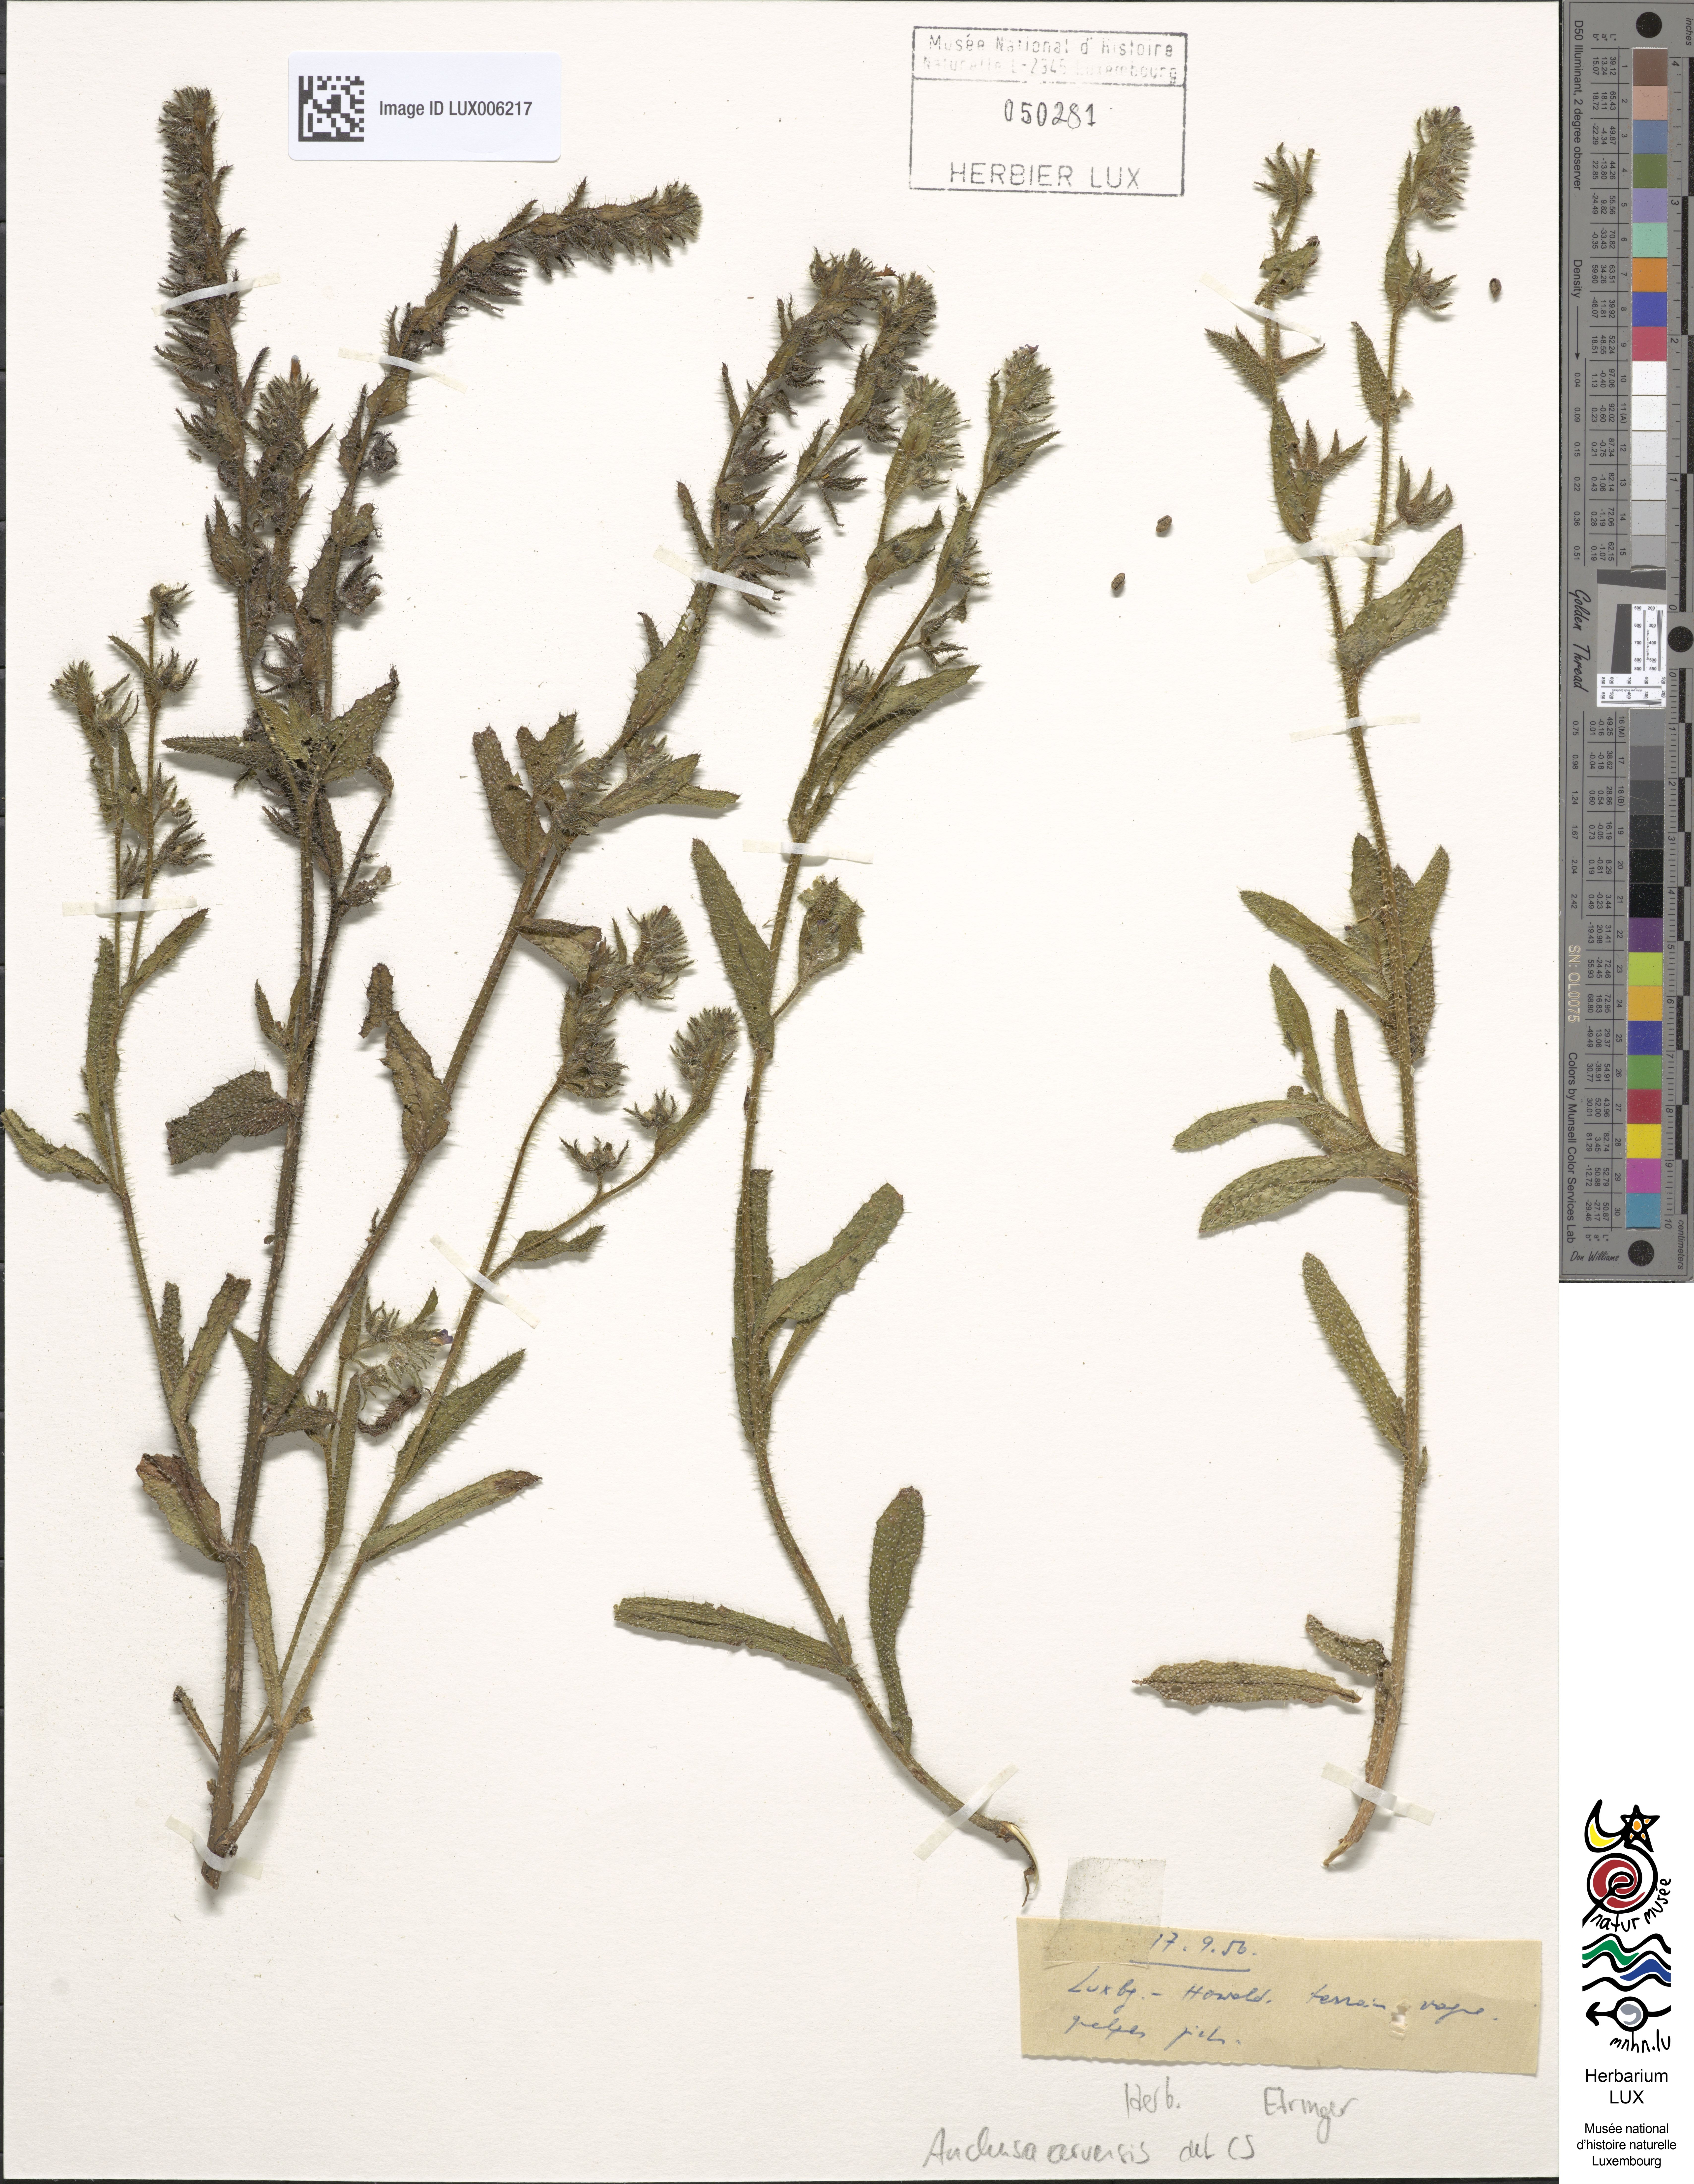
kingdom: Plantae
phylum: Tracheophyta
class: Magnoliopsida
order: Boraginales
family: Boraginaceae
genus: Lycopsis
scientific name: Lycopsis arvensis
